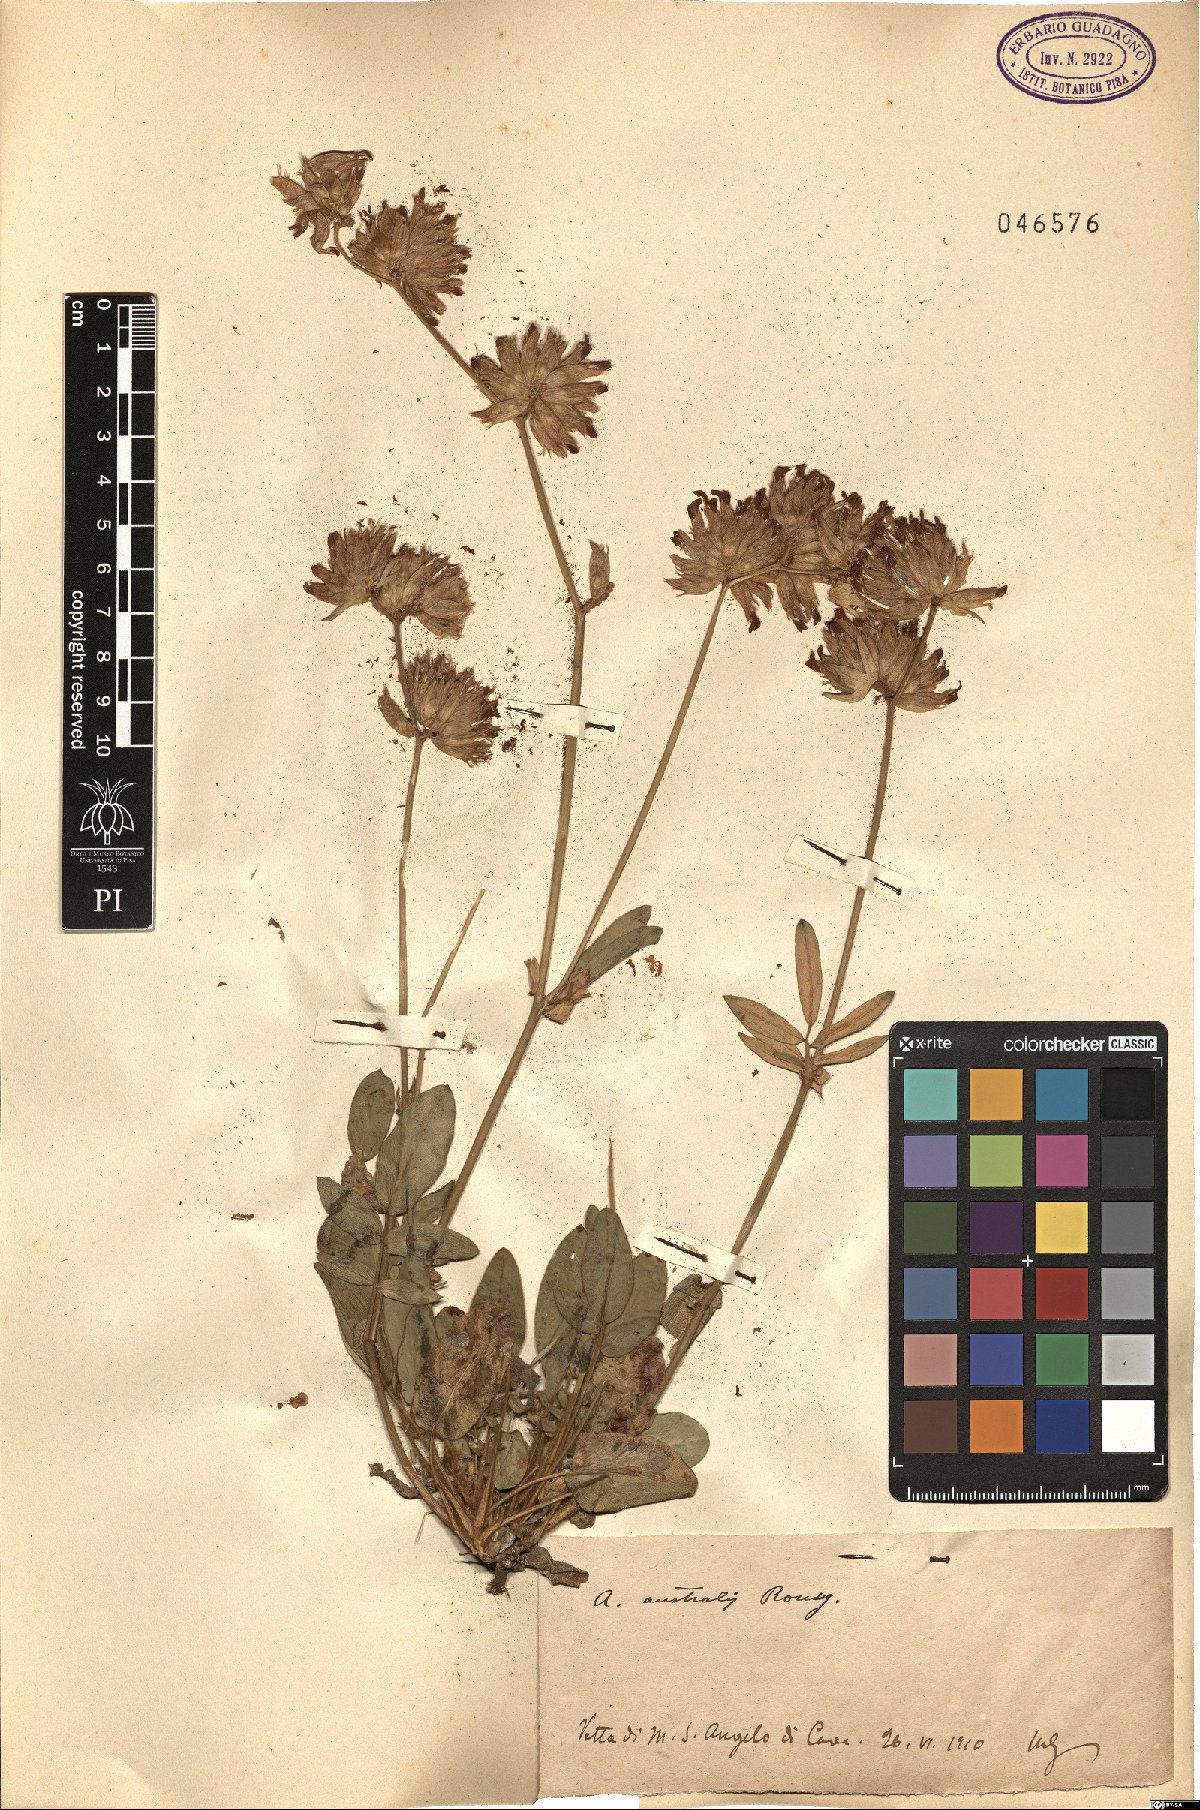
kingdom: Plantae
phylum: Tracheophyta
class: Magnoliopsida
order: Fabales
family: Fabaceae
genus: Anthyllis
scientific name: Anthyllis
